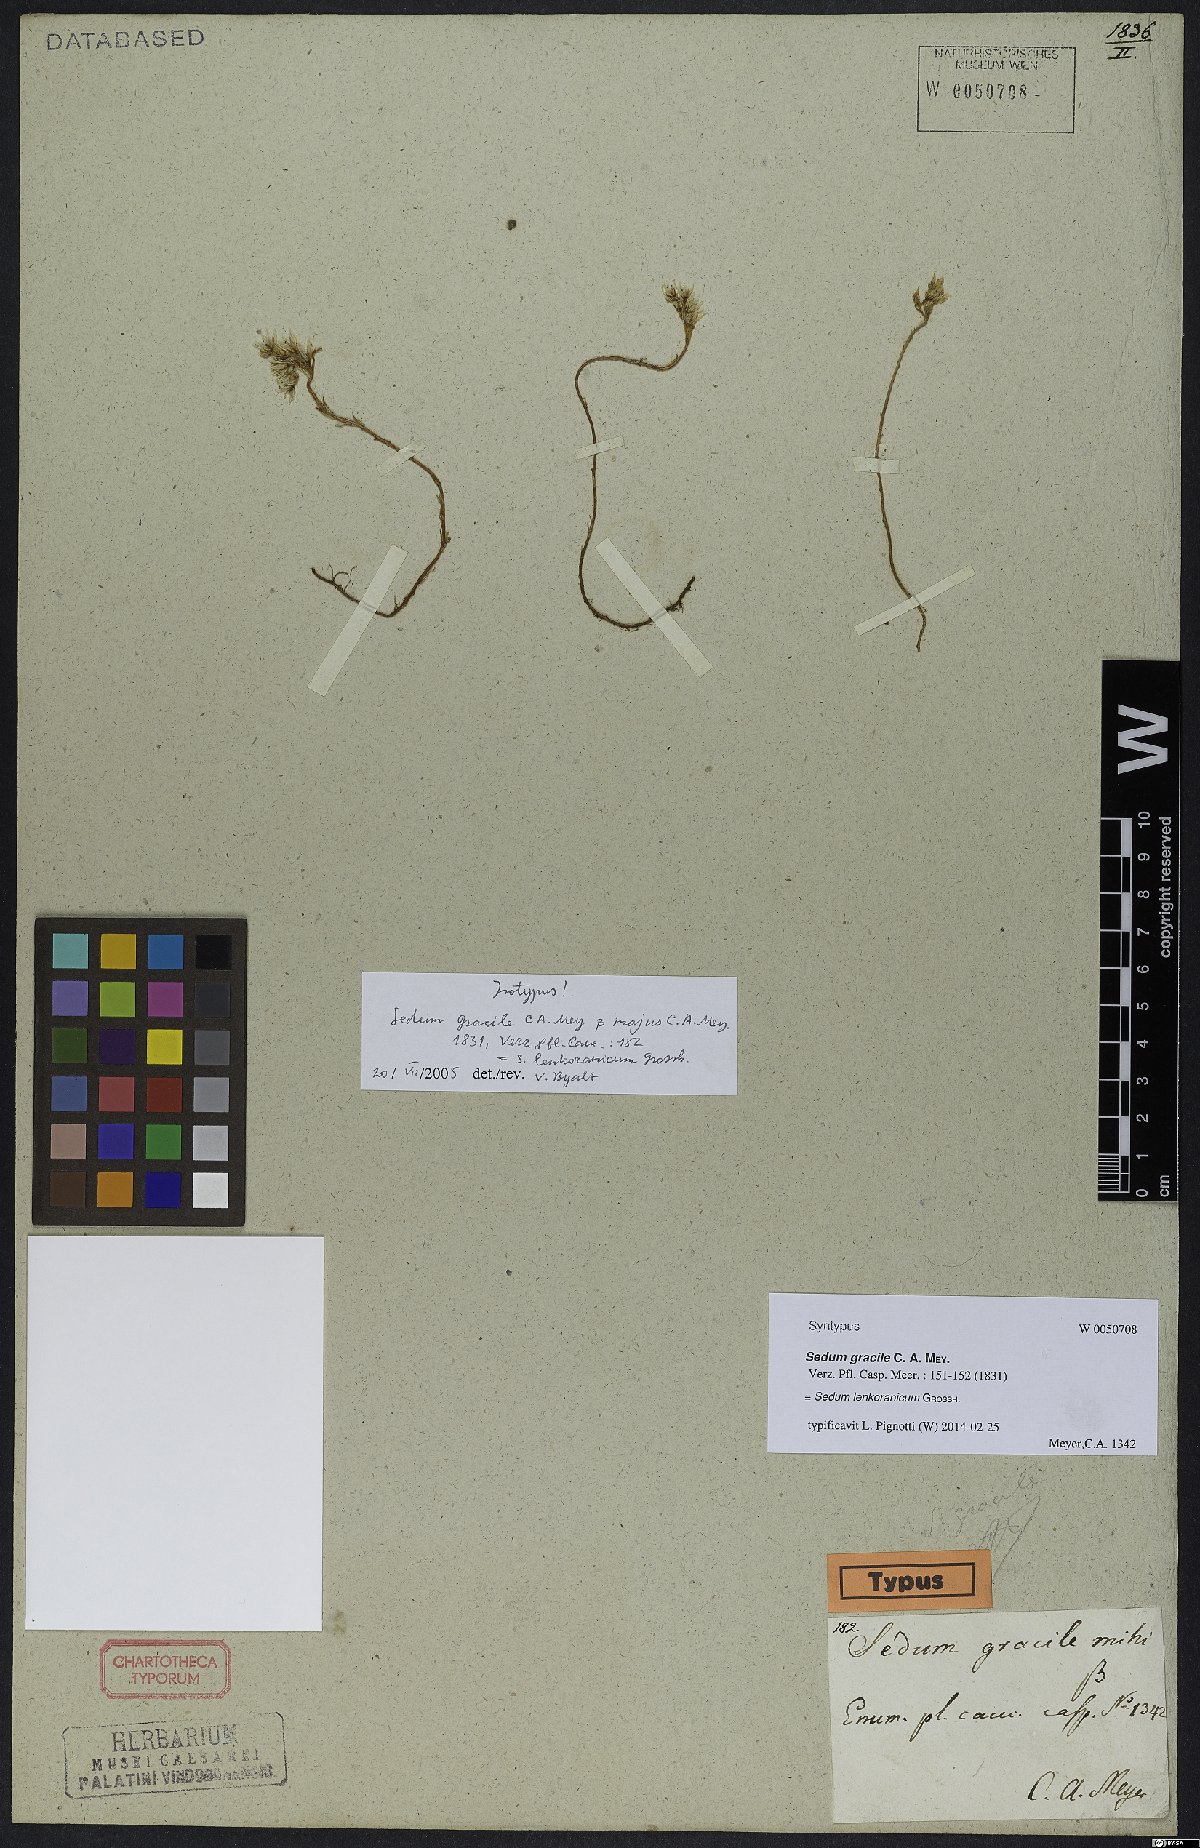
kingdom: Plantae
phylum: Tracheophyta
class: Magnoliopsida
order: Saxifragales
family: Crassulaceae
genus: Sedum
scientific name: Sedum lenkoranicum
